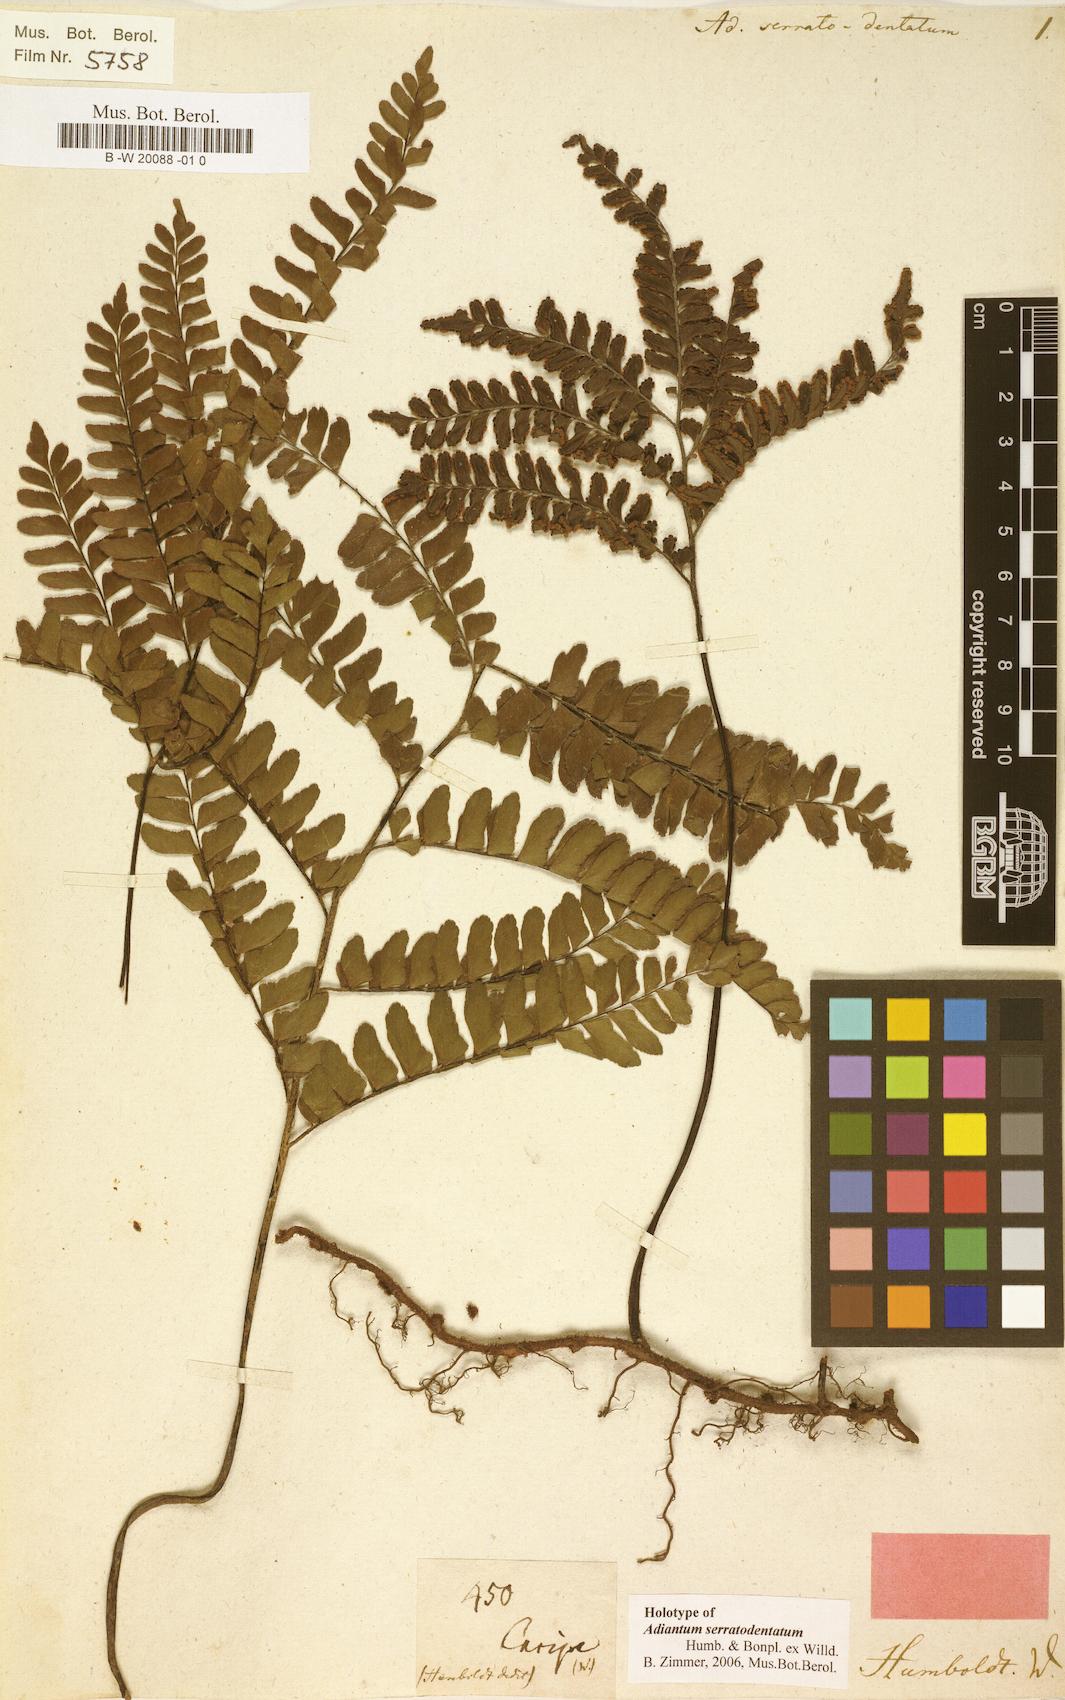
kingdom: Plantae
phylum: Tracheophyta
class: Polypodiopsida
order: Polypodiales
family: Pteridaceae
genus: Adiantum
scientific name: Adiantum serratodentatum
